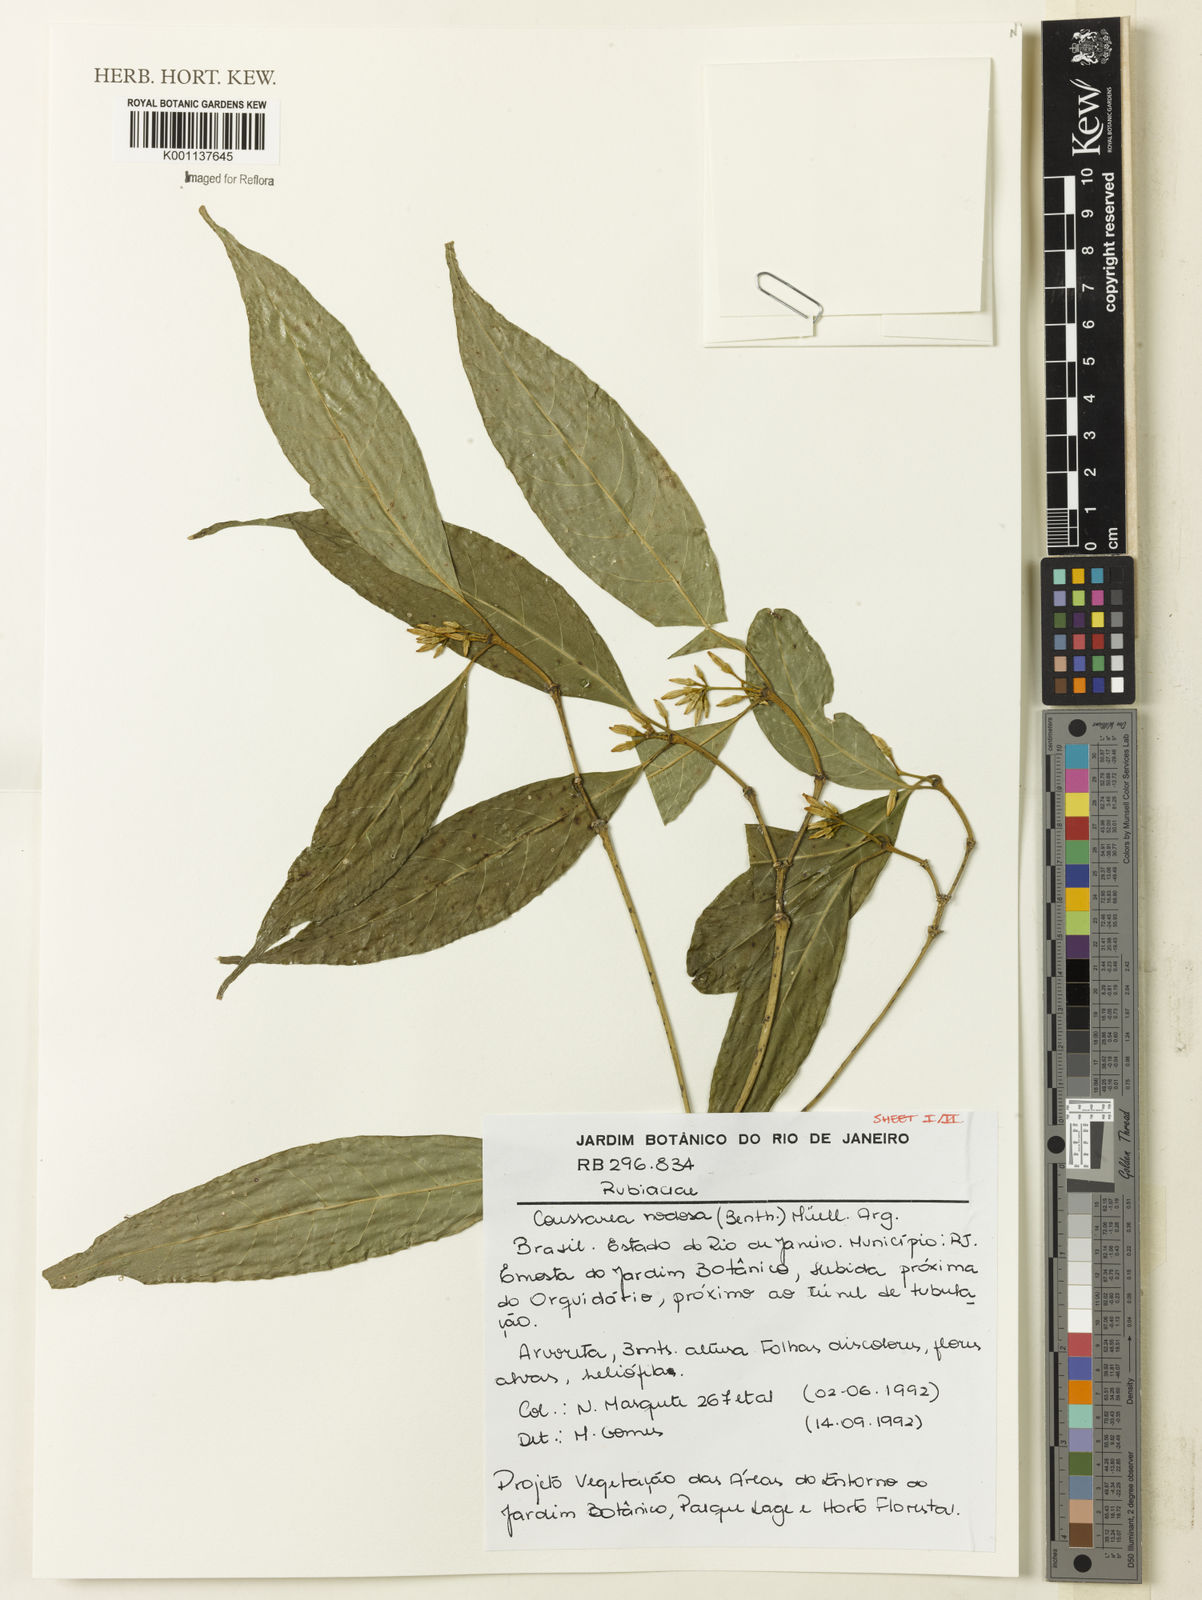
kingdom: Plantae
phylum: Tracheophyta
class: Magnoliopsida
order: Gentianales
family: Rubiaceae
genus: Coussarea
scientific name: Coussarea
